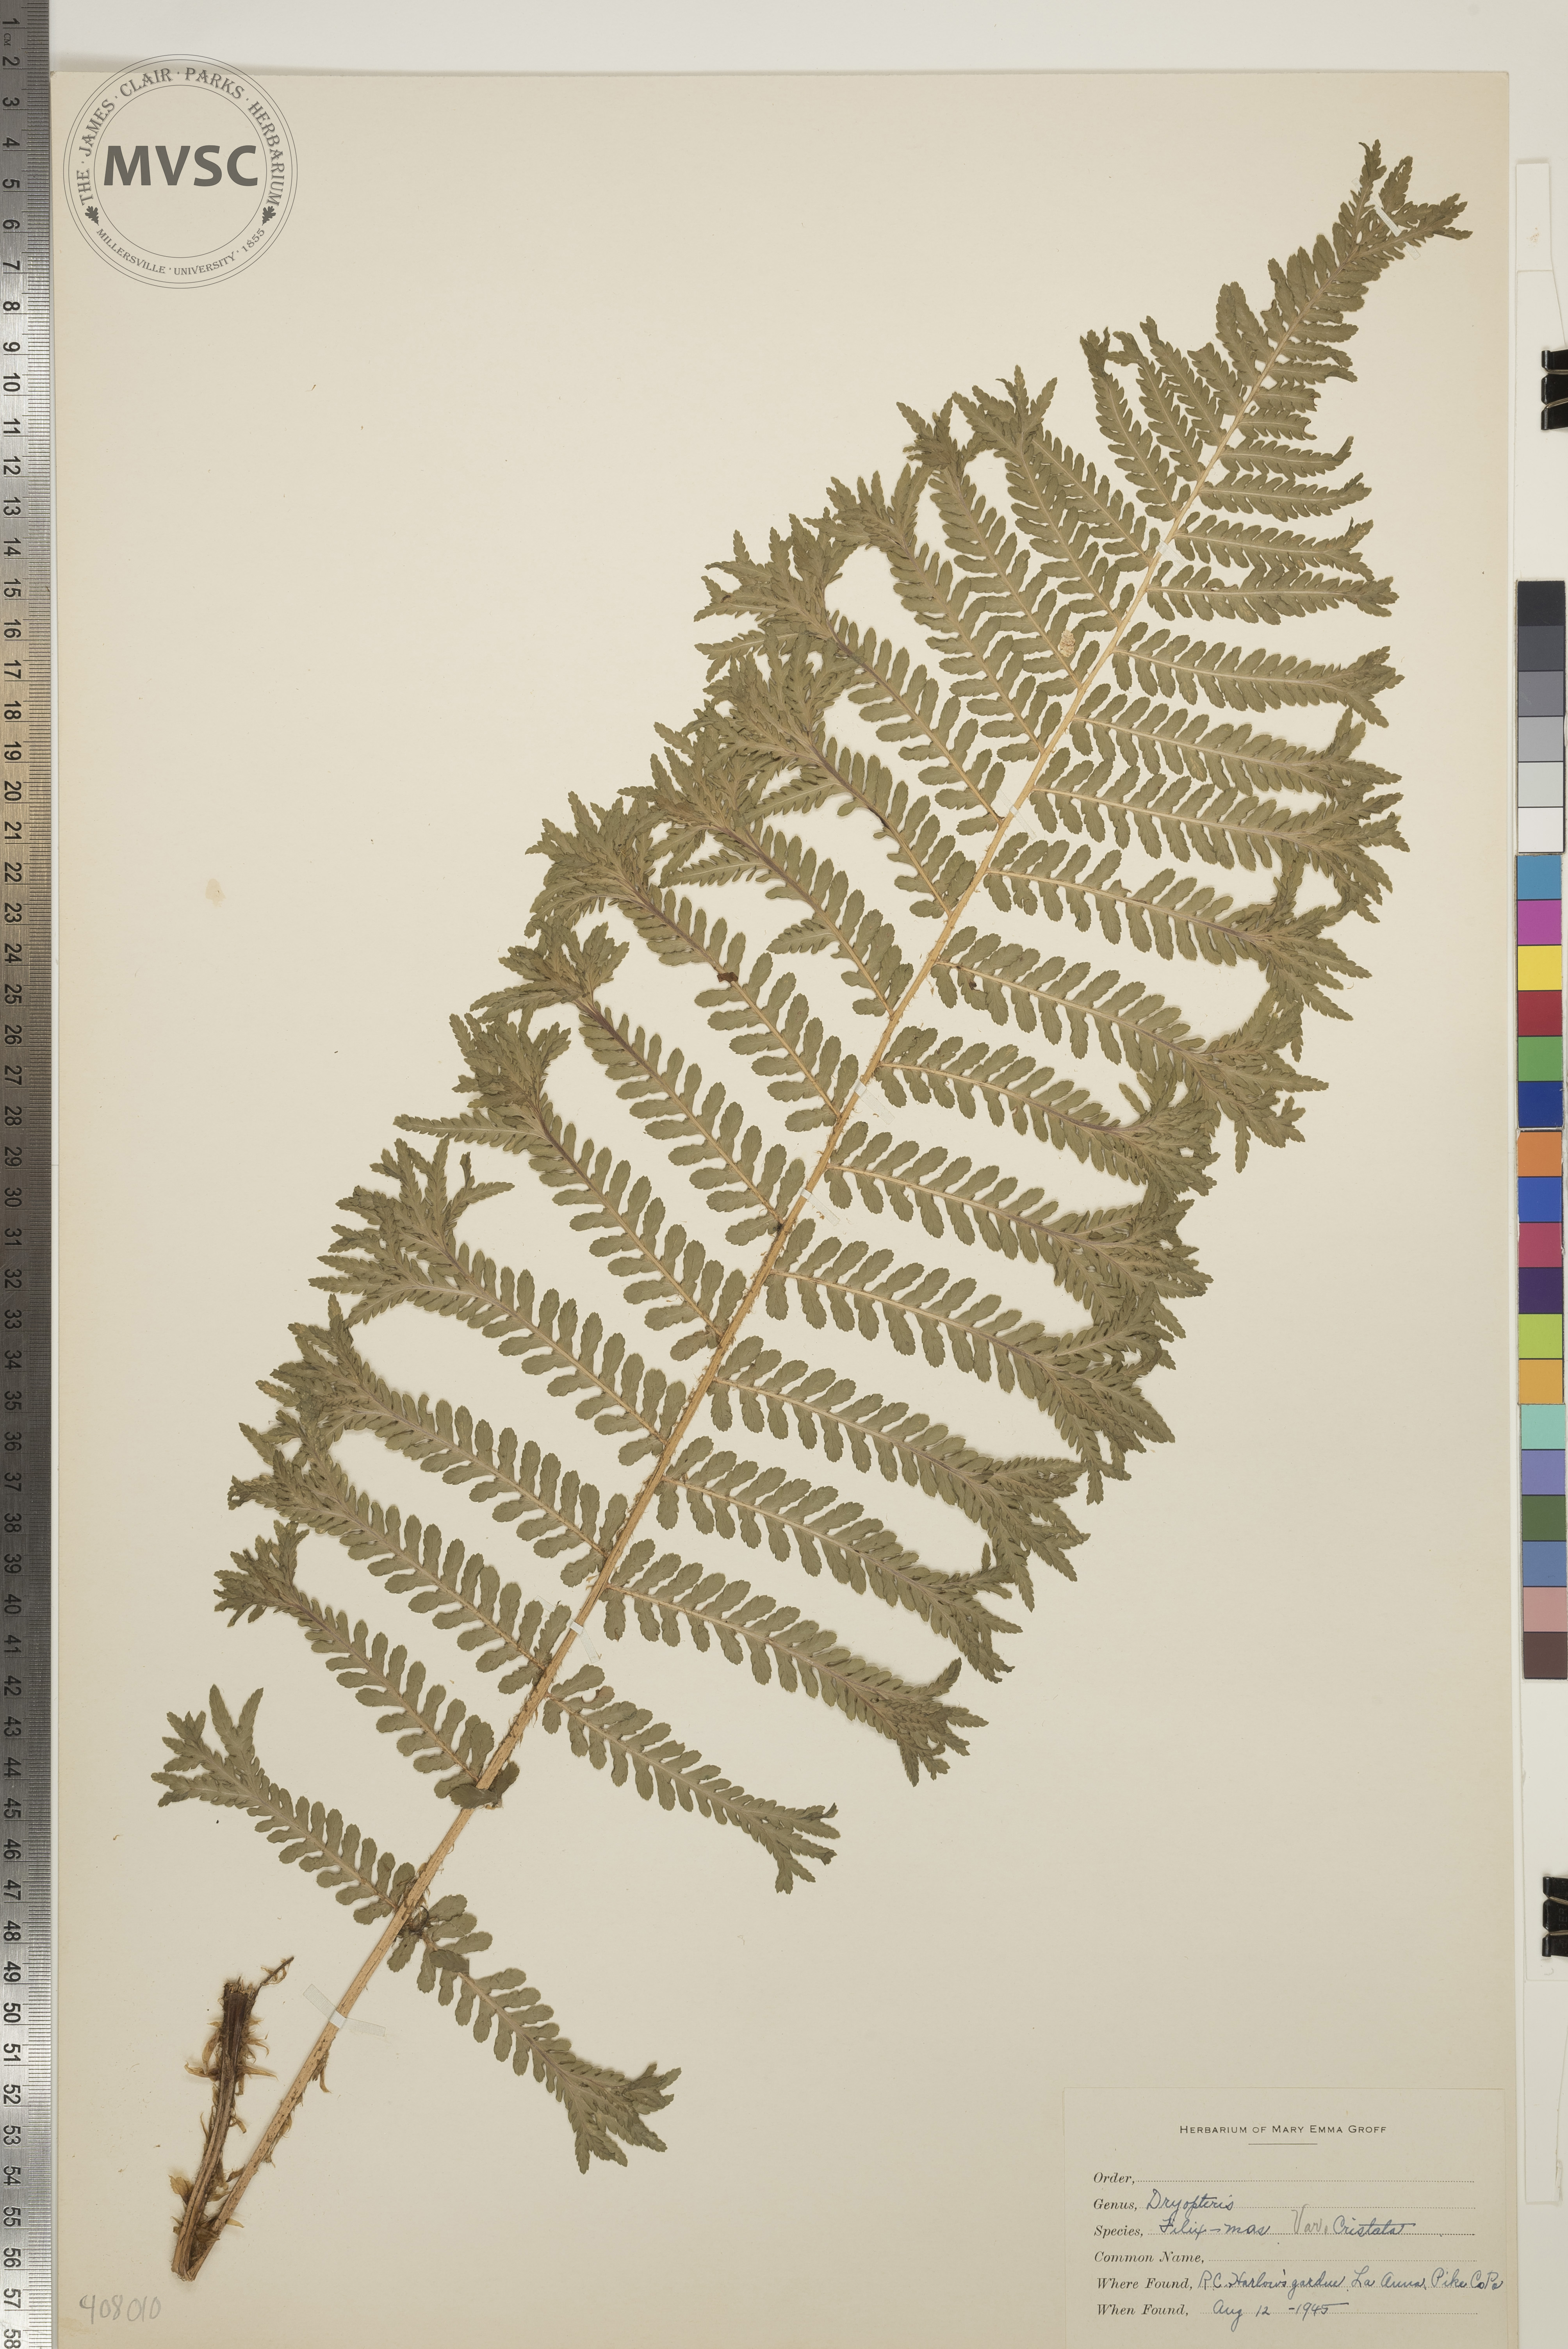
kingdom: Plantae
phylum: Tracheophyta
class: Polypodiopsida
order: Polypodiales
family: Dryopteridaceae
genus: Dryopteris
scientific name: Dryopteris filix-mas
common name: Male fern
